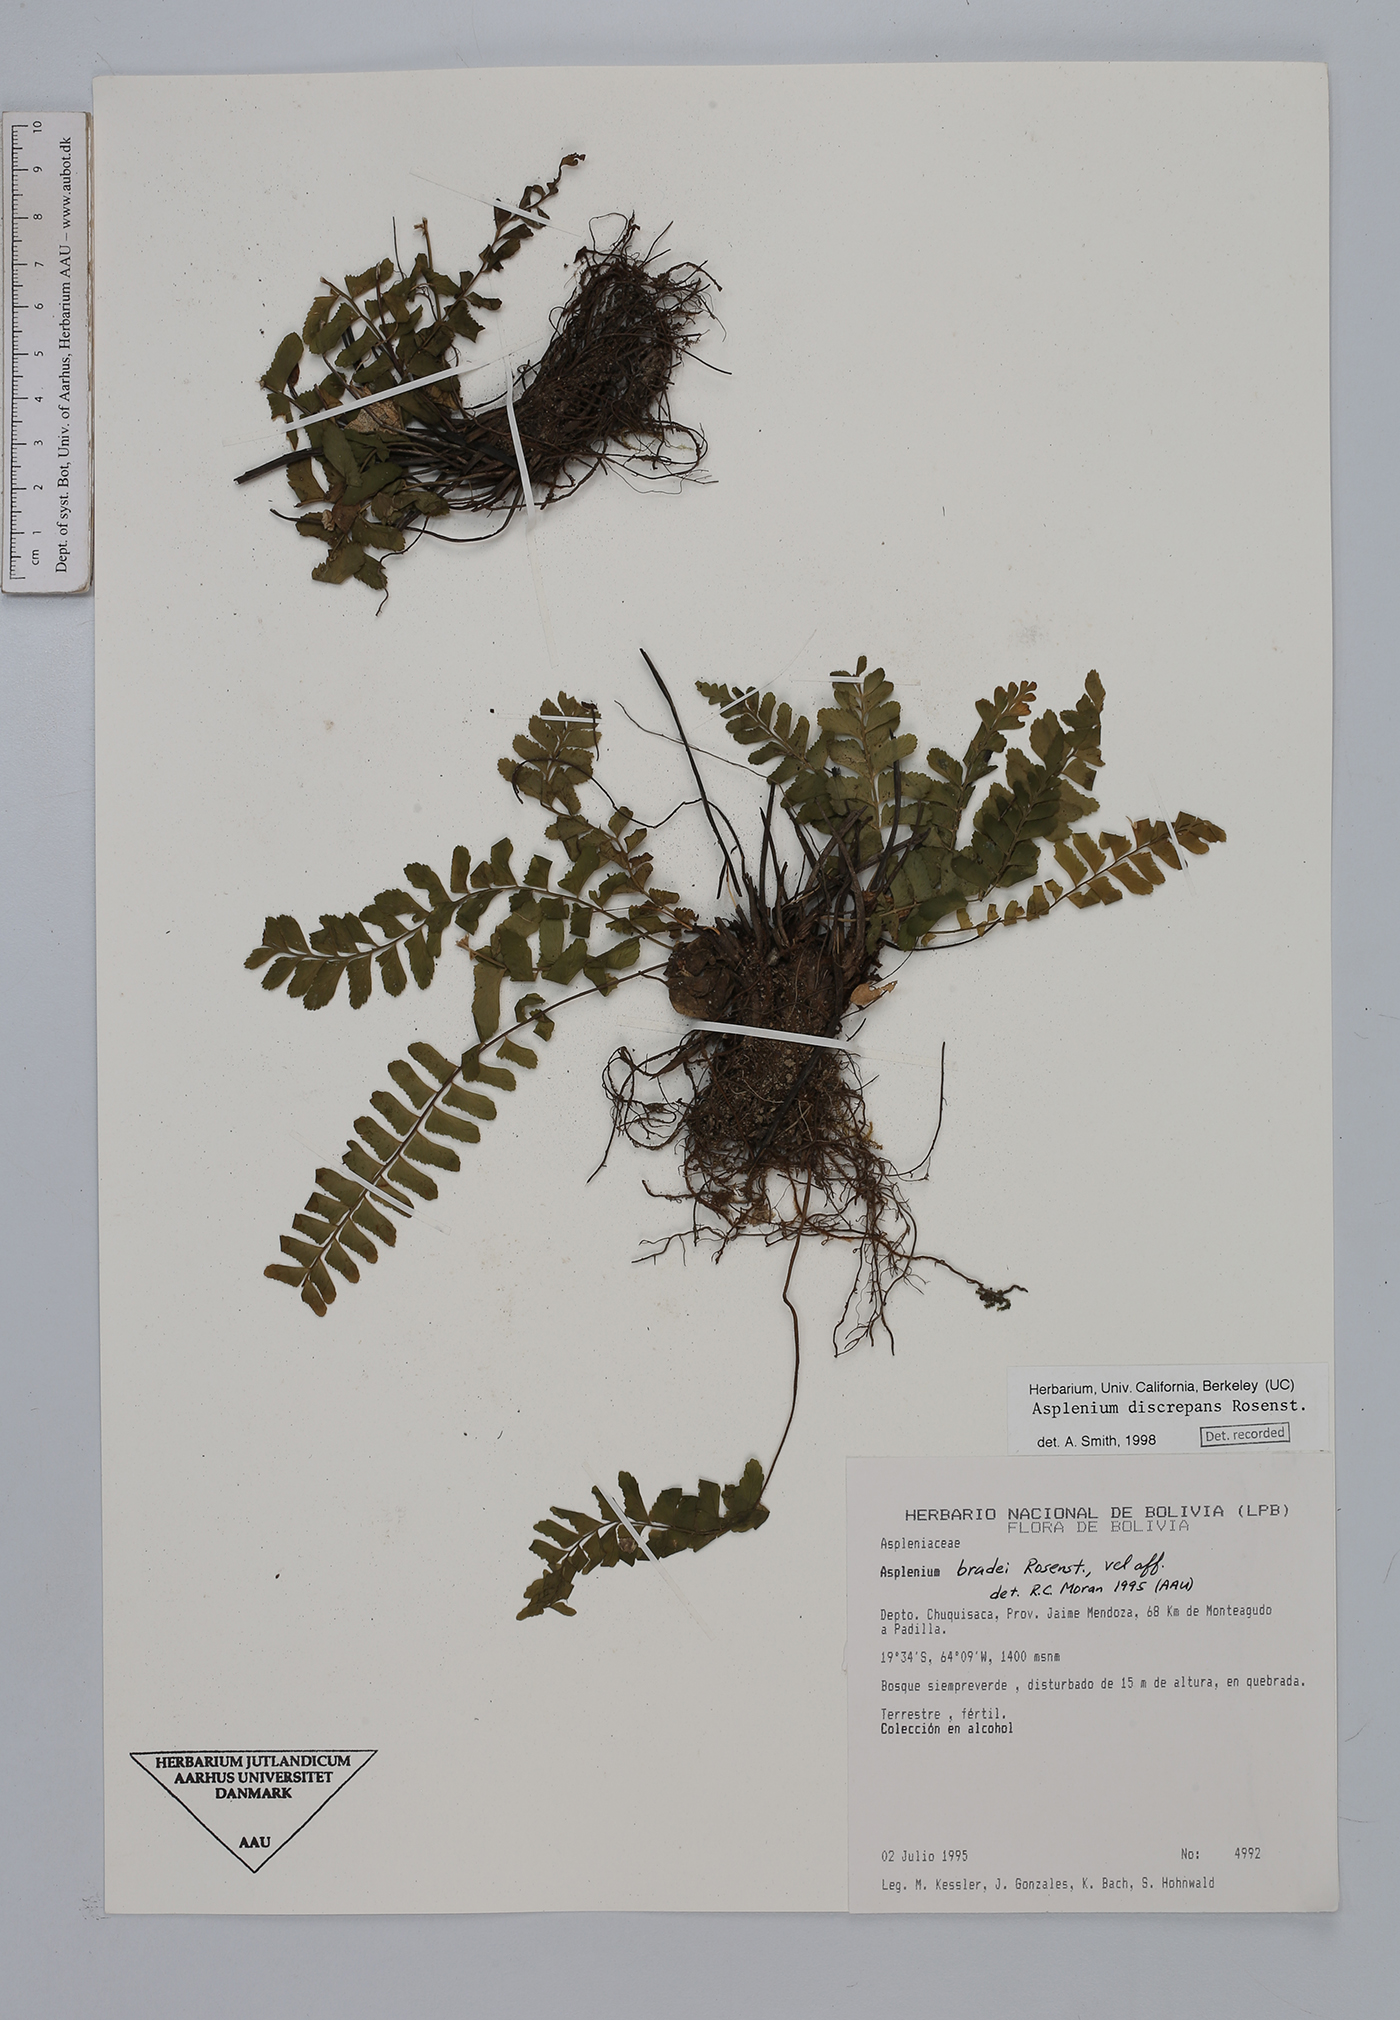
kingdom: Plantae
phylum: Tracheophyta
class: Polypodiopsida
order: Polypodiales
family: Aspleniaceae
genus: Asplenium
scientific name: Asplenium discrepans
